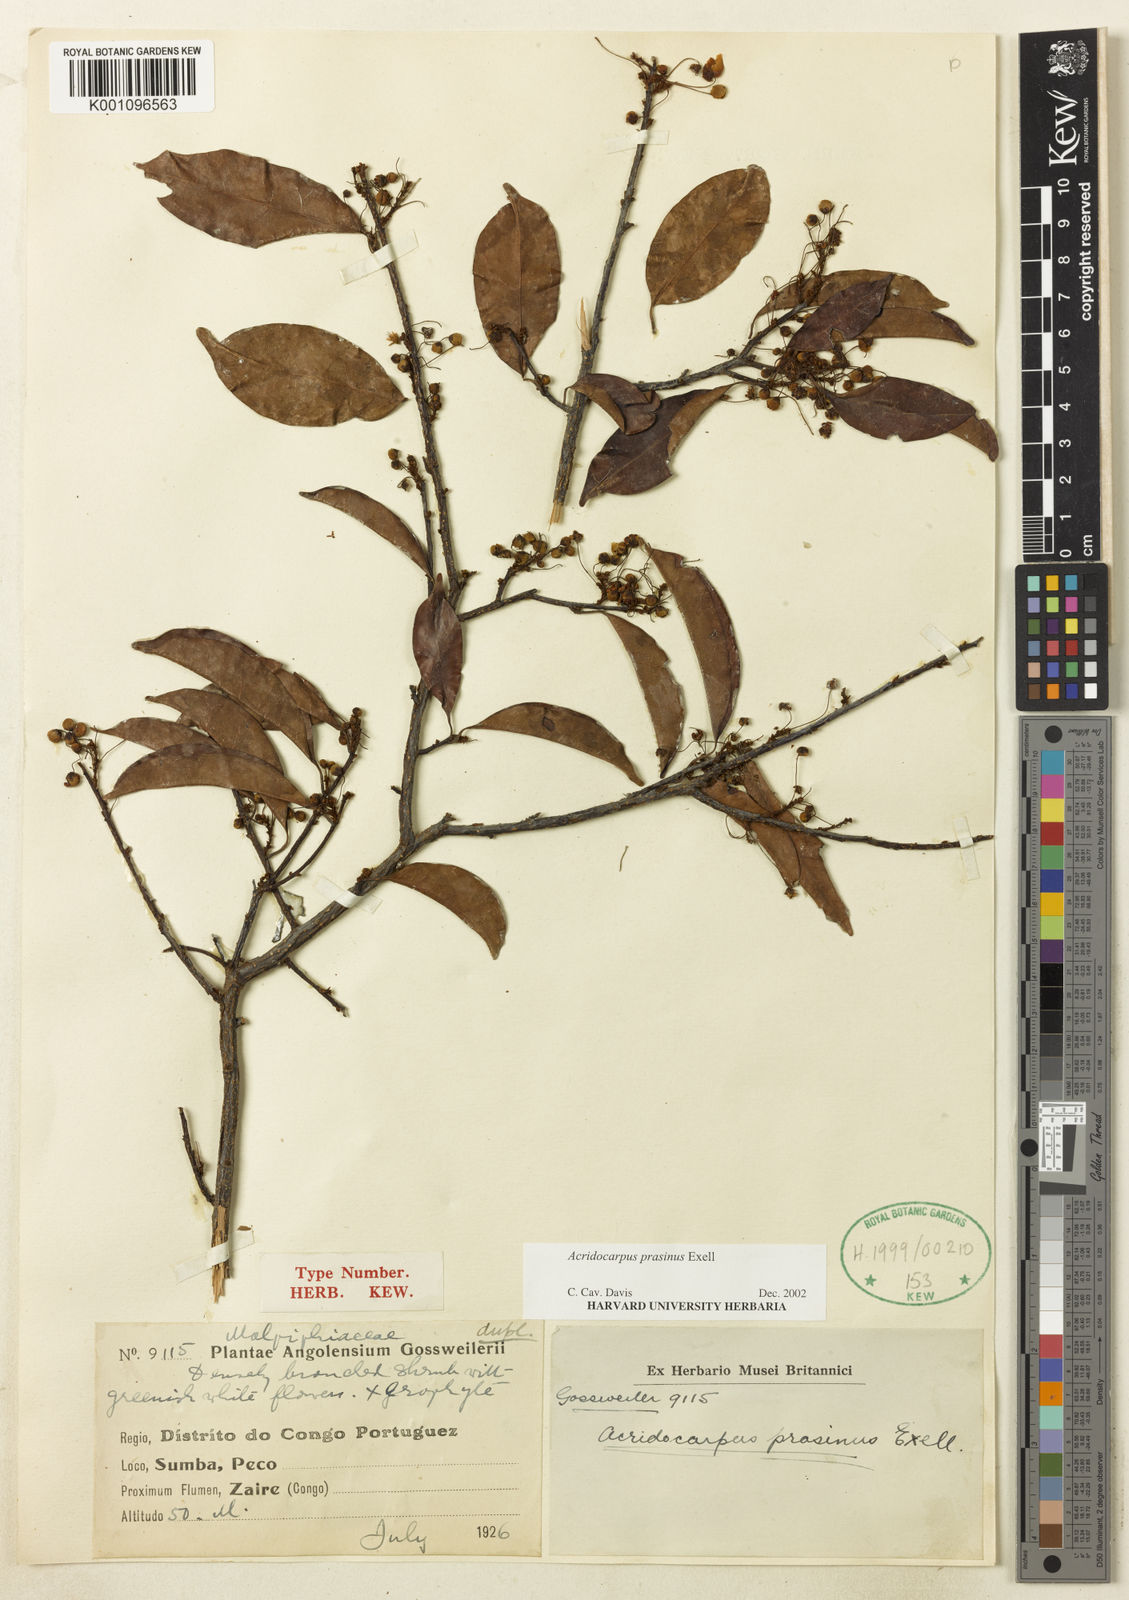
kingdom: Plantae
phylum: Tracheophyta
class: Magnoliopsida
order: Malpighiales
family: Malpighiaceae
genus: Acridocarpus
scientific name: Acridocarpus prasinus
